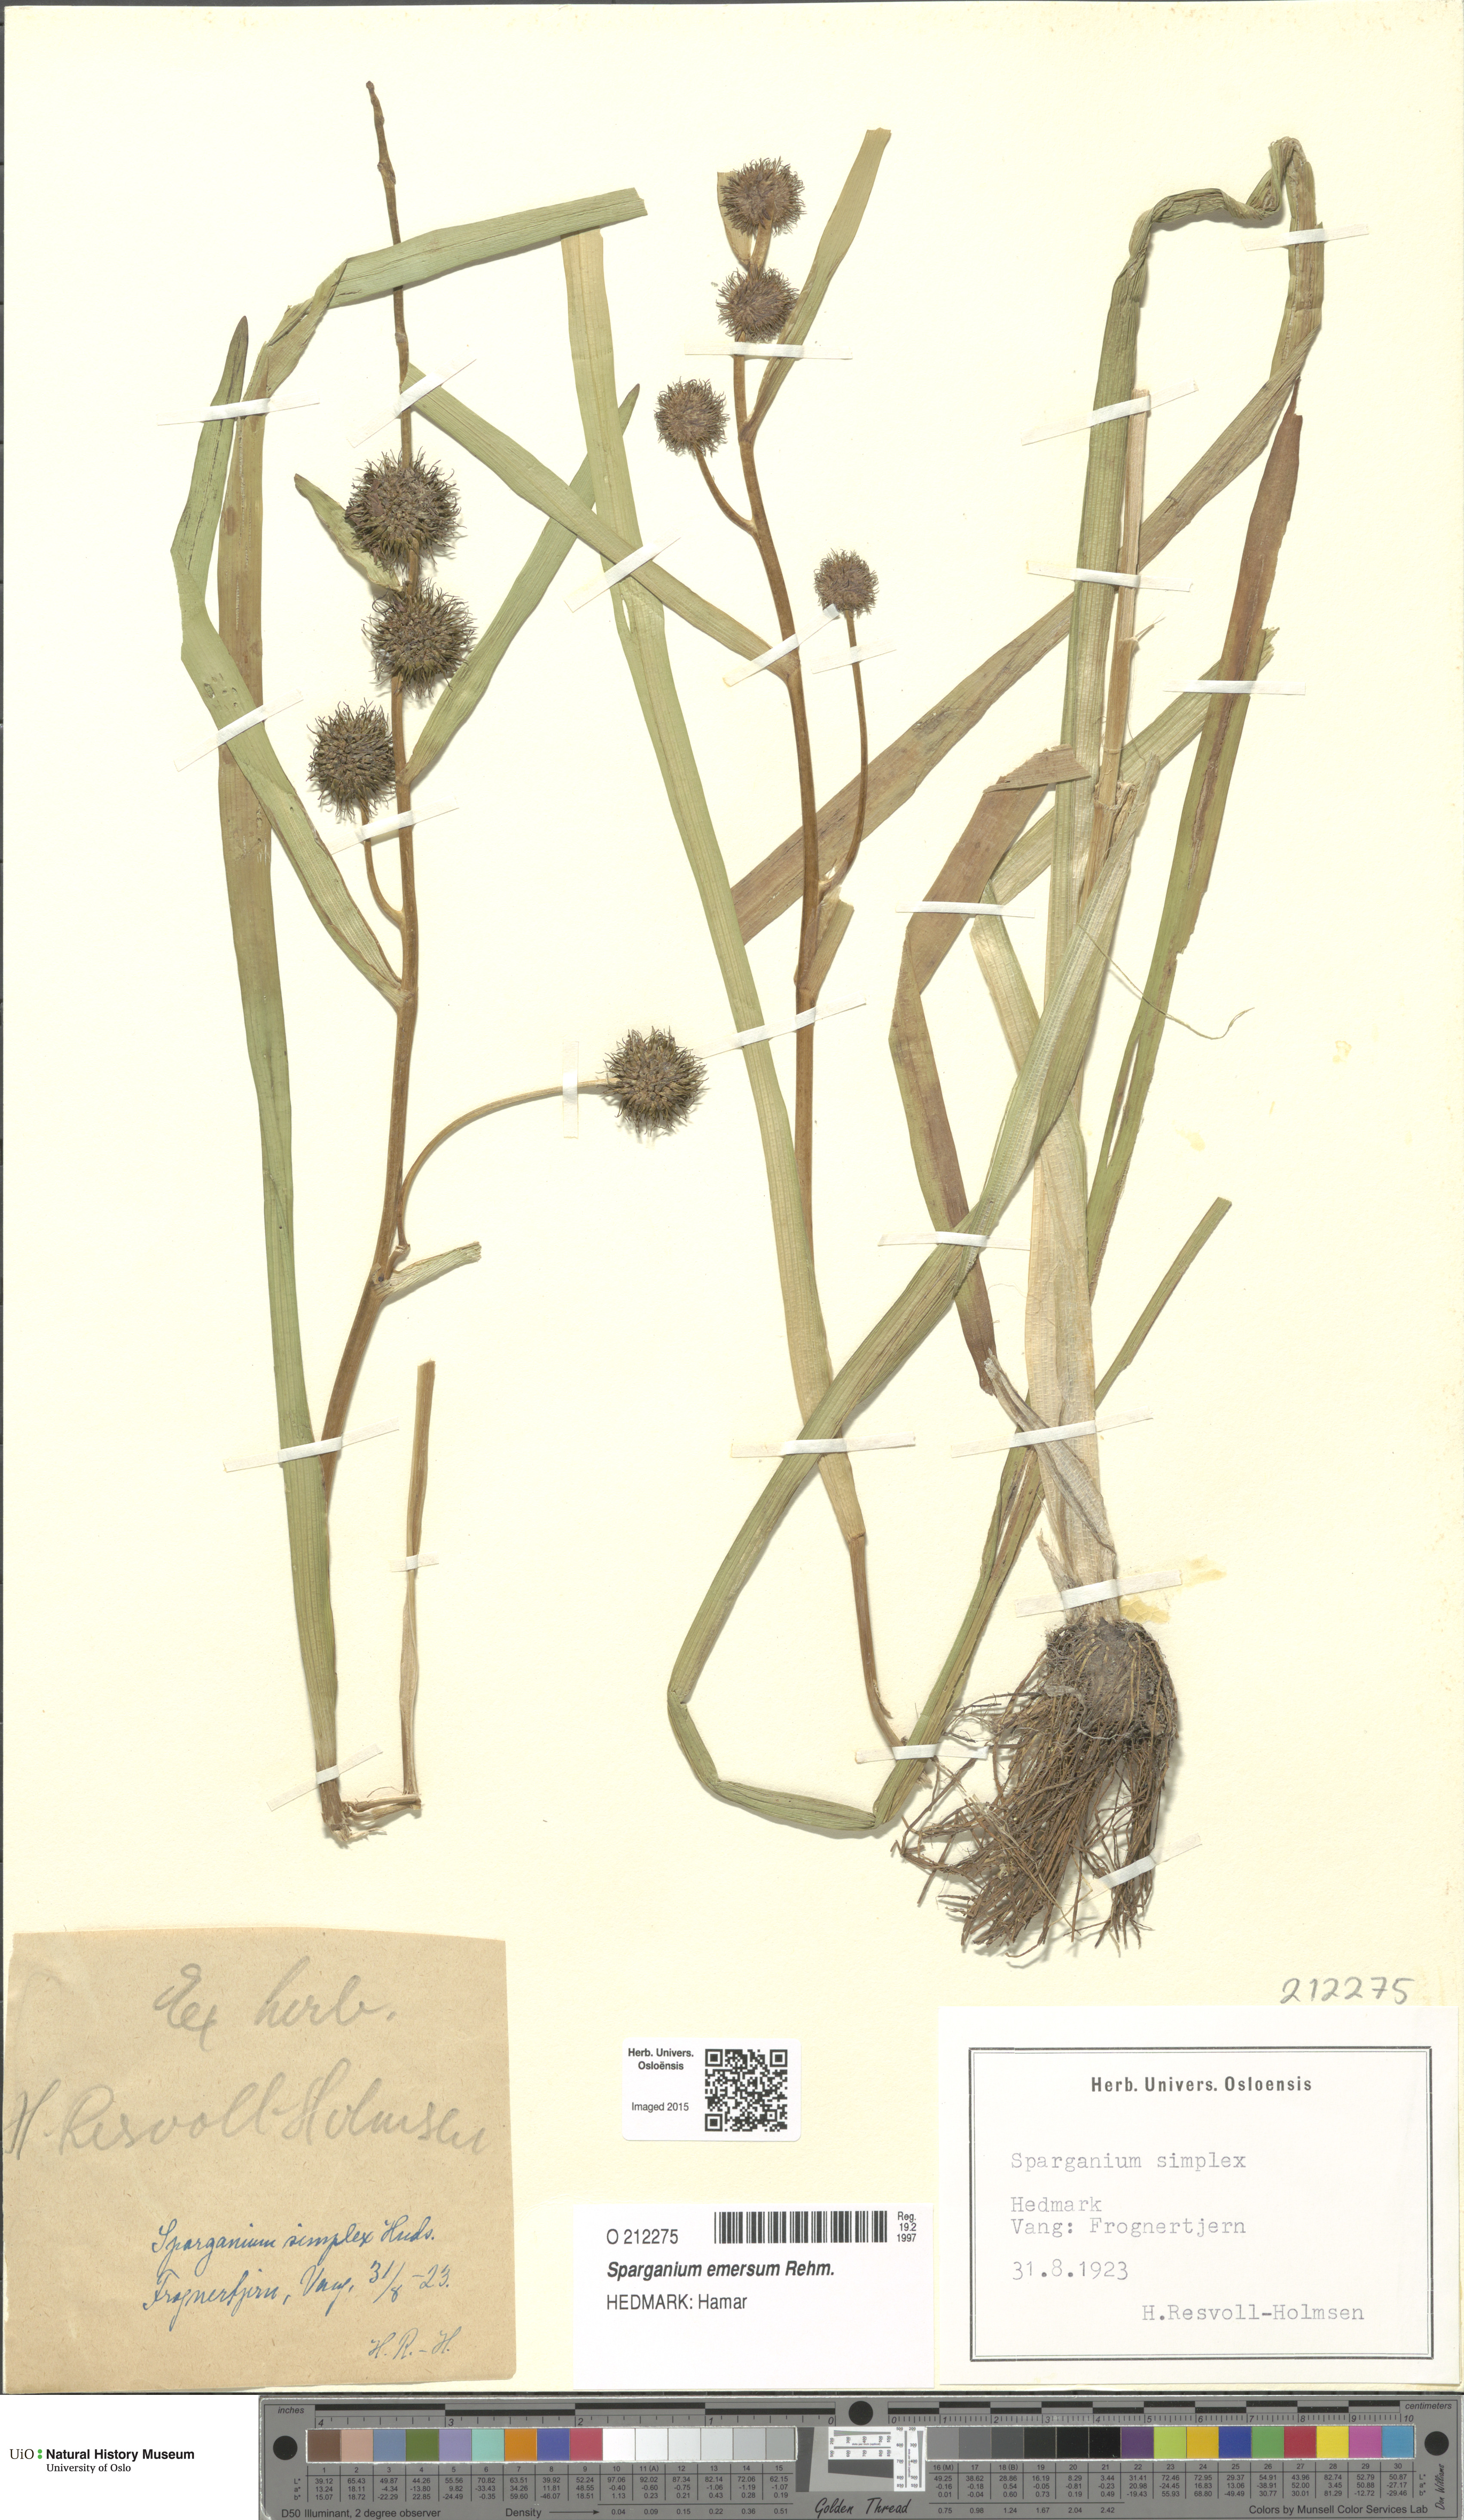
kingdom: Plantae
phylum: Tracheophyta
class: Liliopsida
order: Poales
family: Typhaceae
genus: Sparganium
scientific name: Sparganium emersum
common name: Unbranched bur-reed
